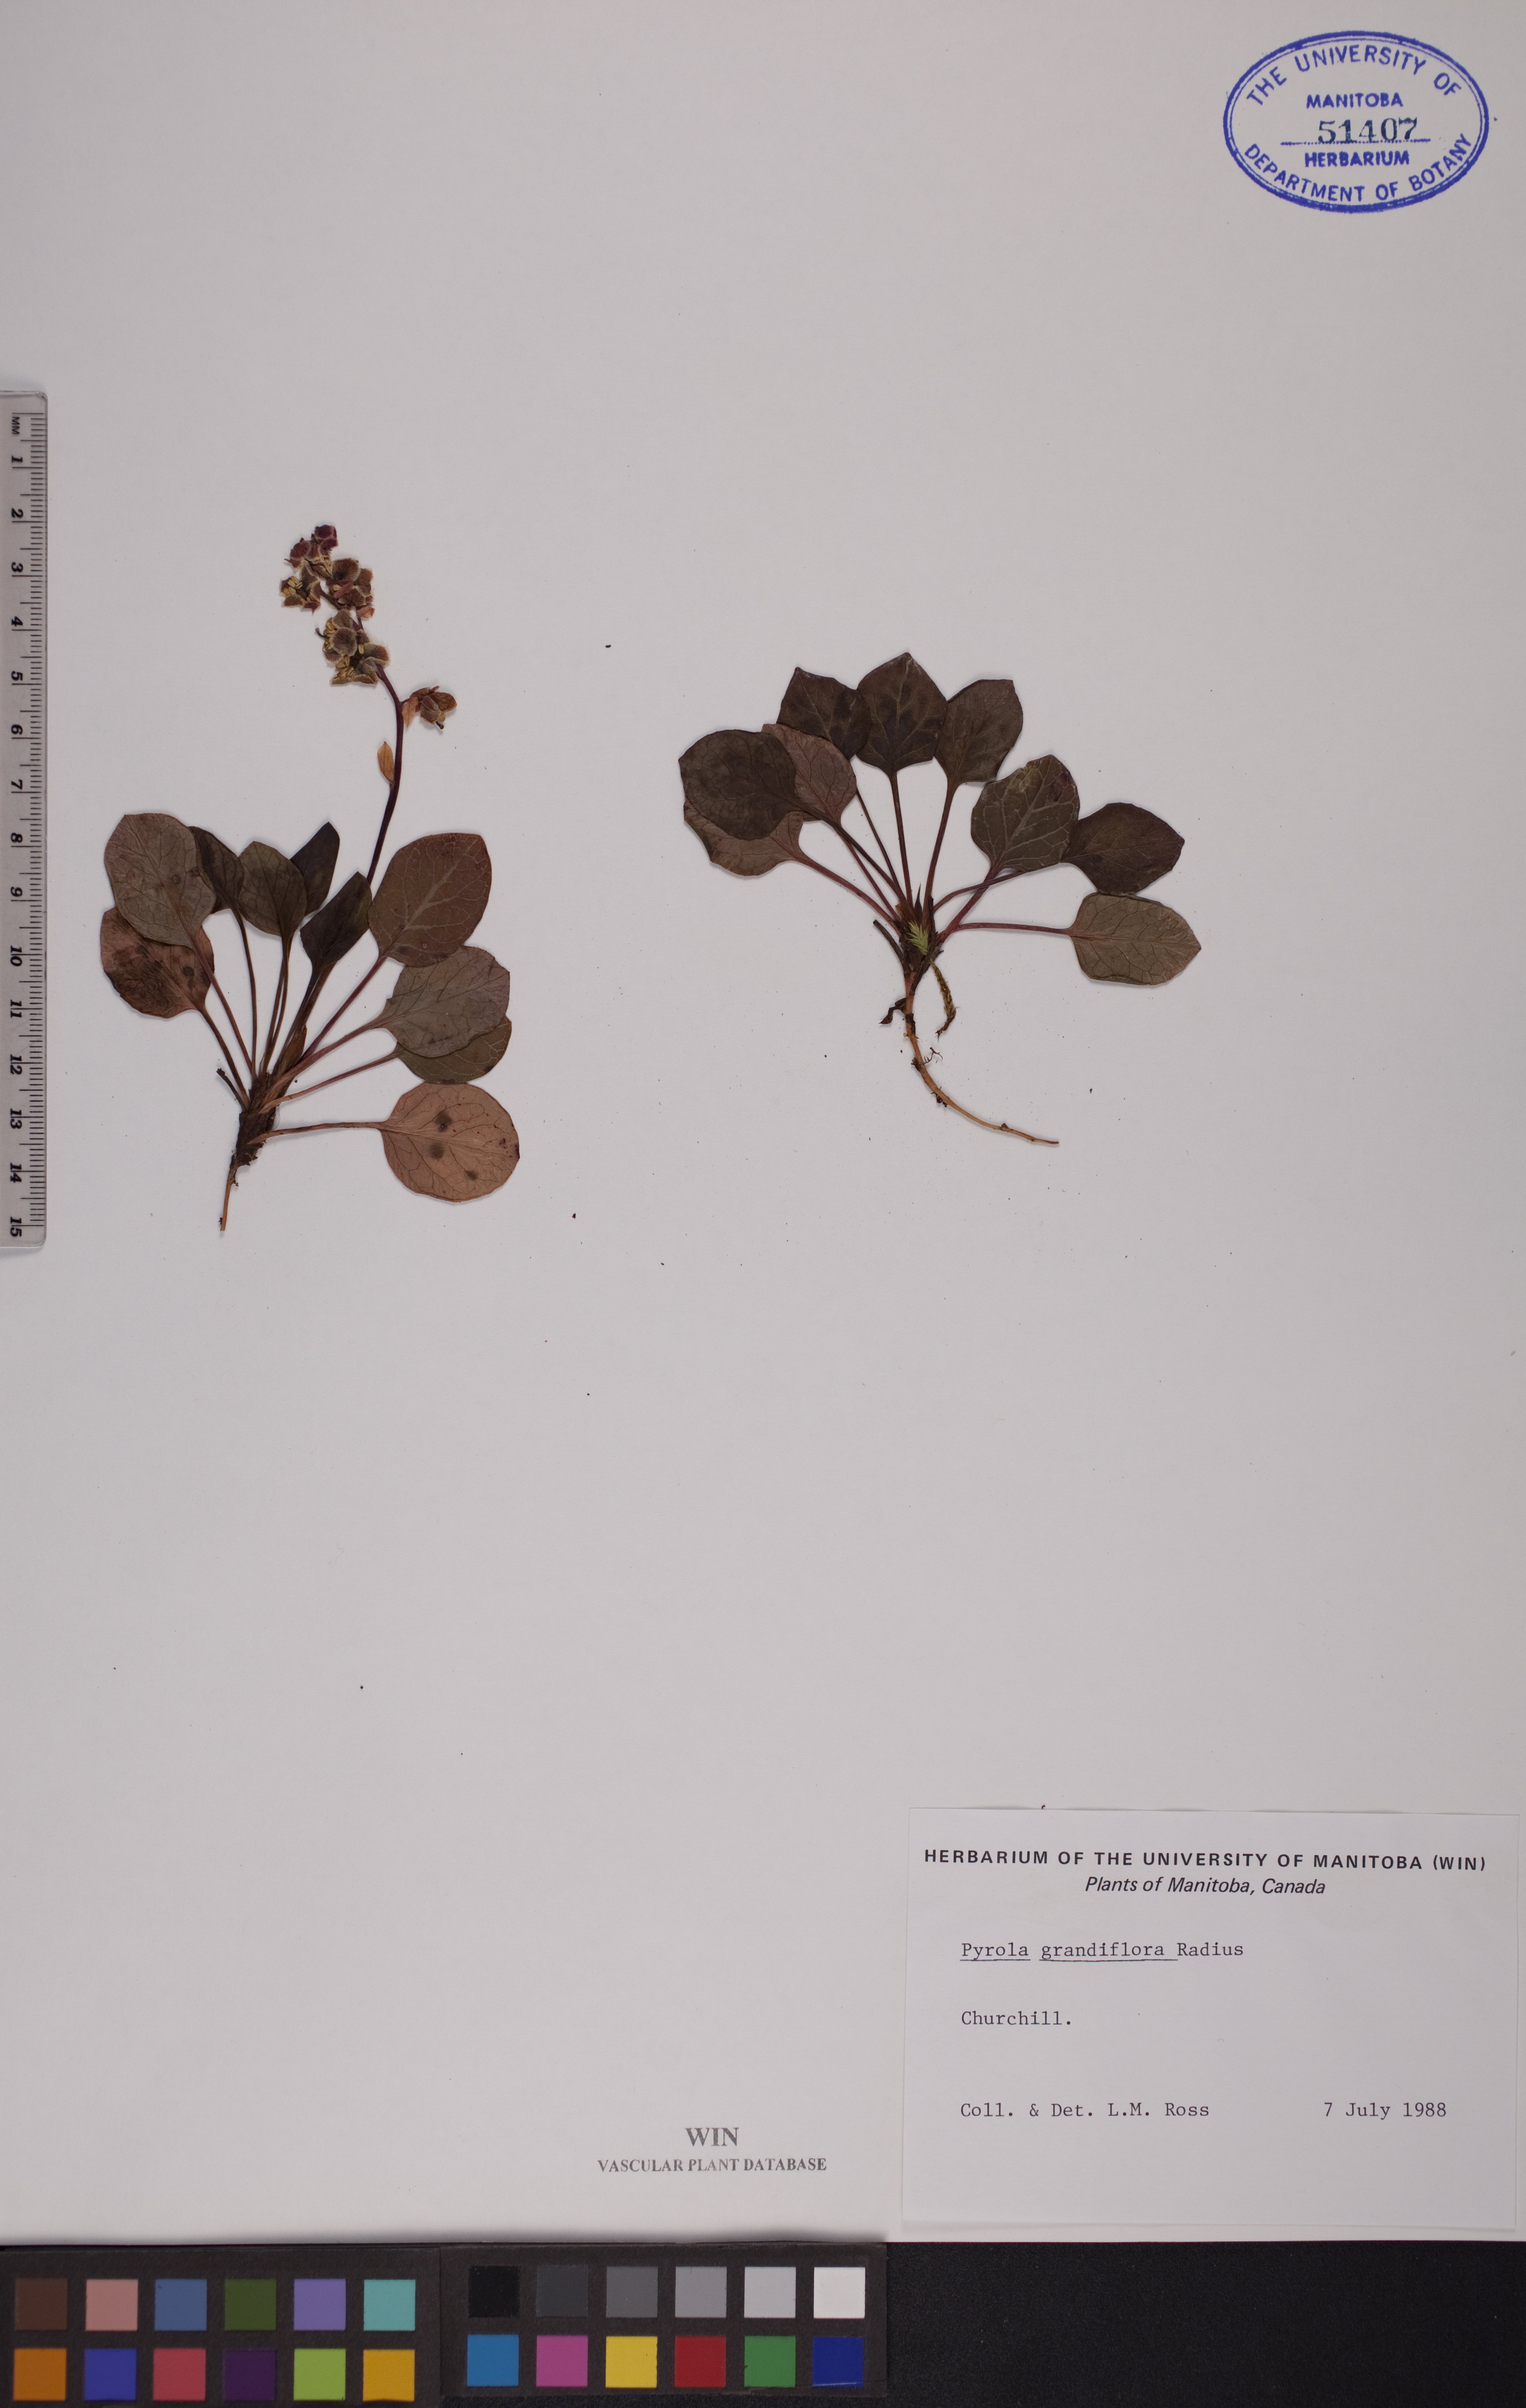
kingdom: Plantae
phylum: Tracheophyta
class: Magnoliopsida
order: Ericales
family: Ericaceae
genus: Pyrola
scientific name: Pyrola grandiflora
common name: Arctic pyrola
